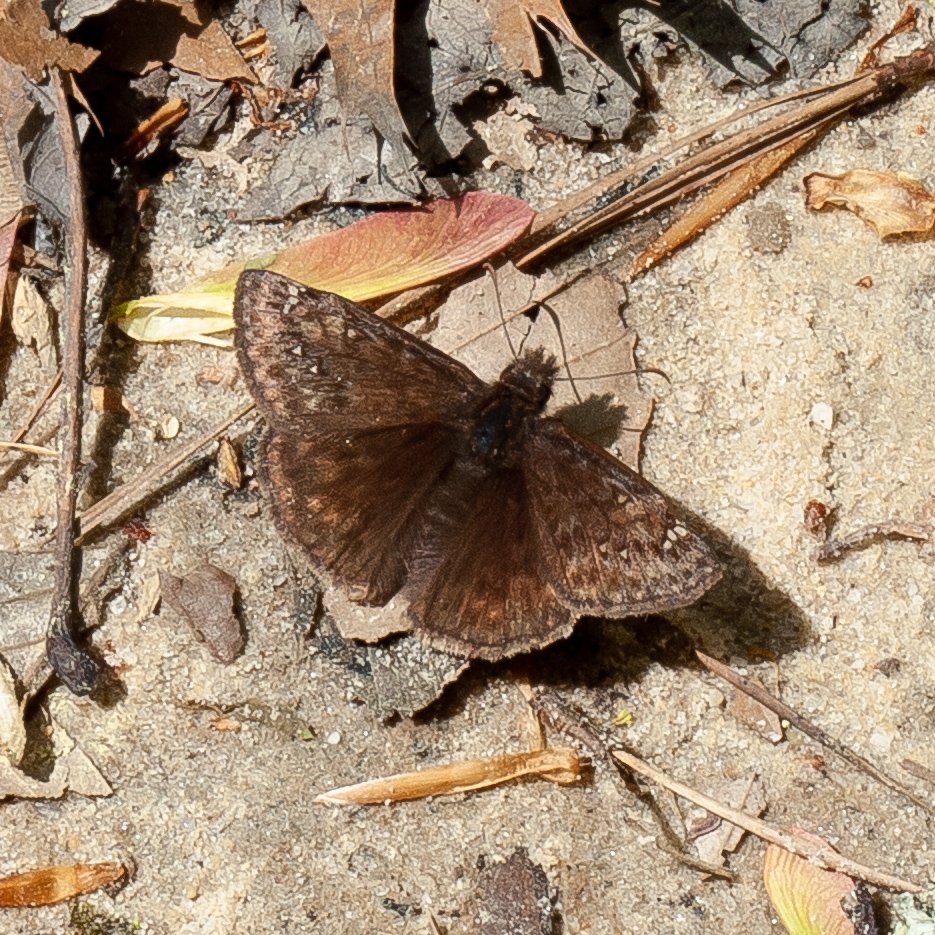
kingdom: Animalia
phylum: Arthropoda
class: Insecta
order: Lepidoptera
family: Hesperiidae
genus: Gesta
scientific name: Gesta
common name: Juvenal's Duskywing
